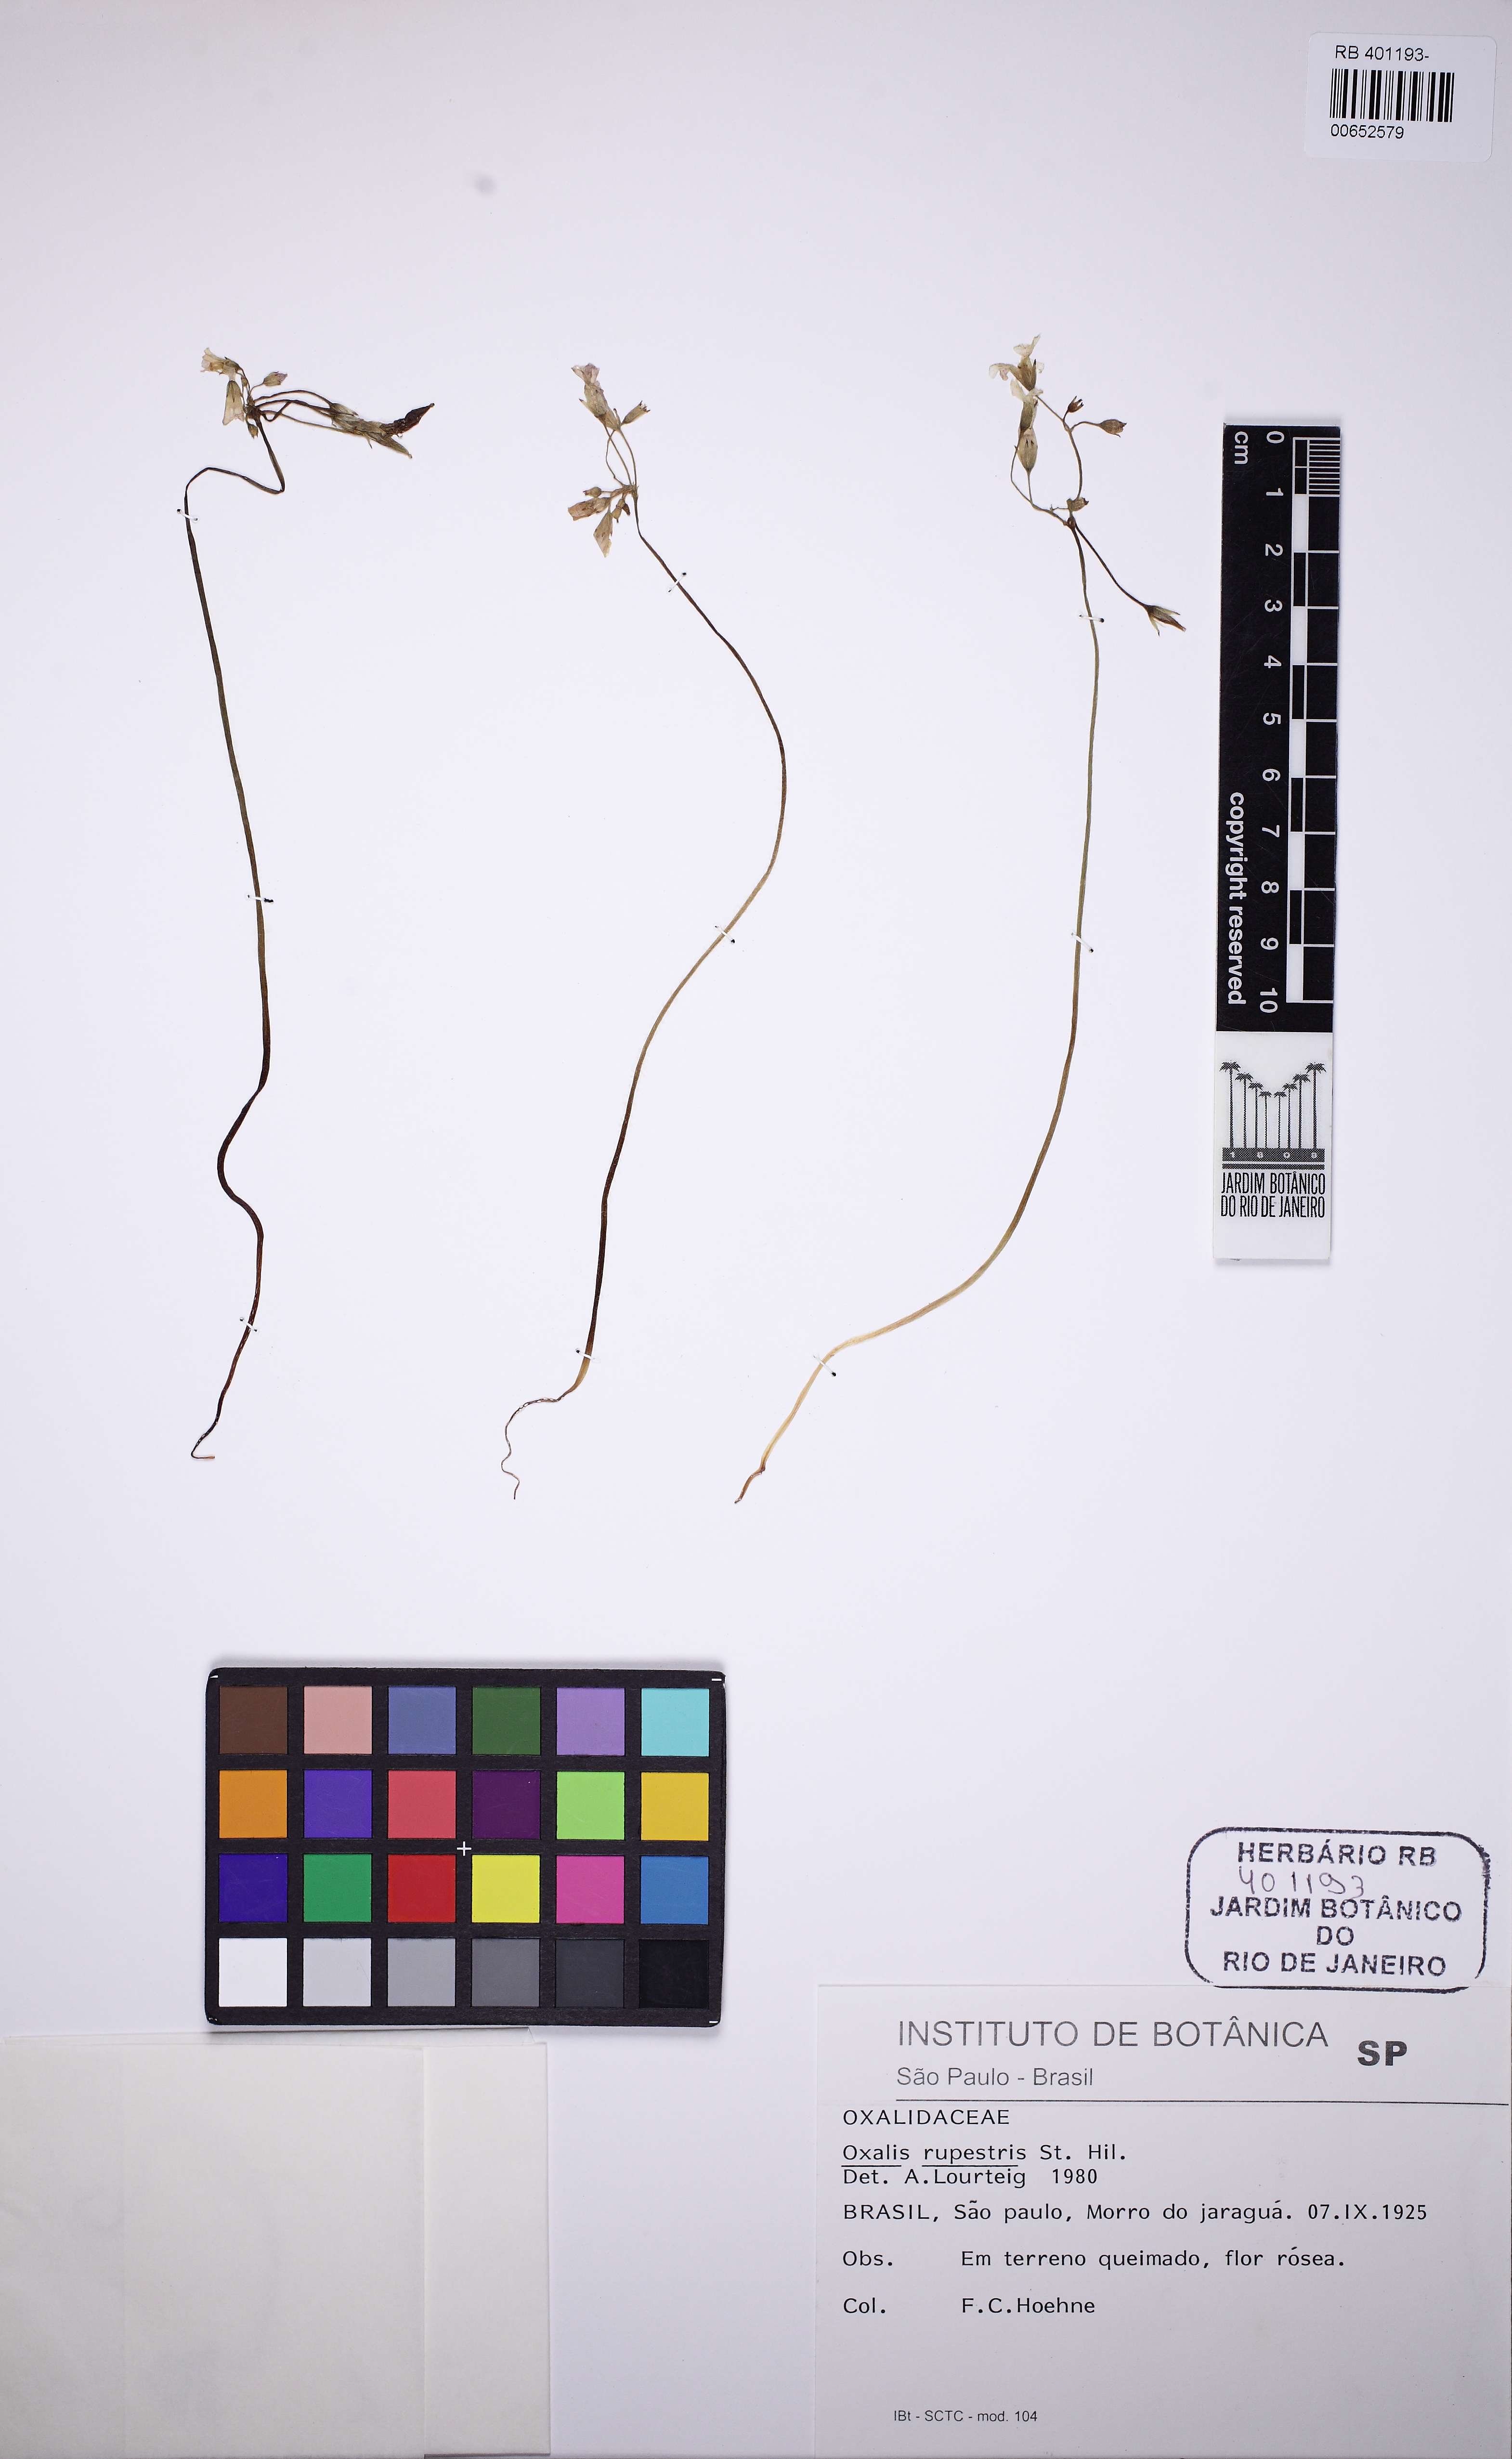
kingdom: Plantae
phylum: Tracheophyta
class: Magnoliopsida
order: Oxalidales
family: Oxalidaceae
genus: Oxalis
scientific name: Oxalis rupestris
